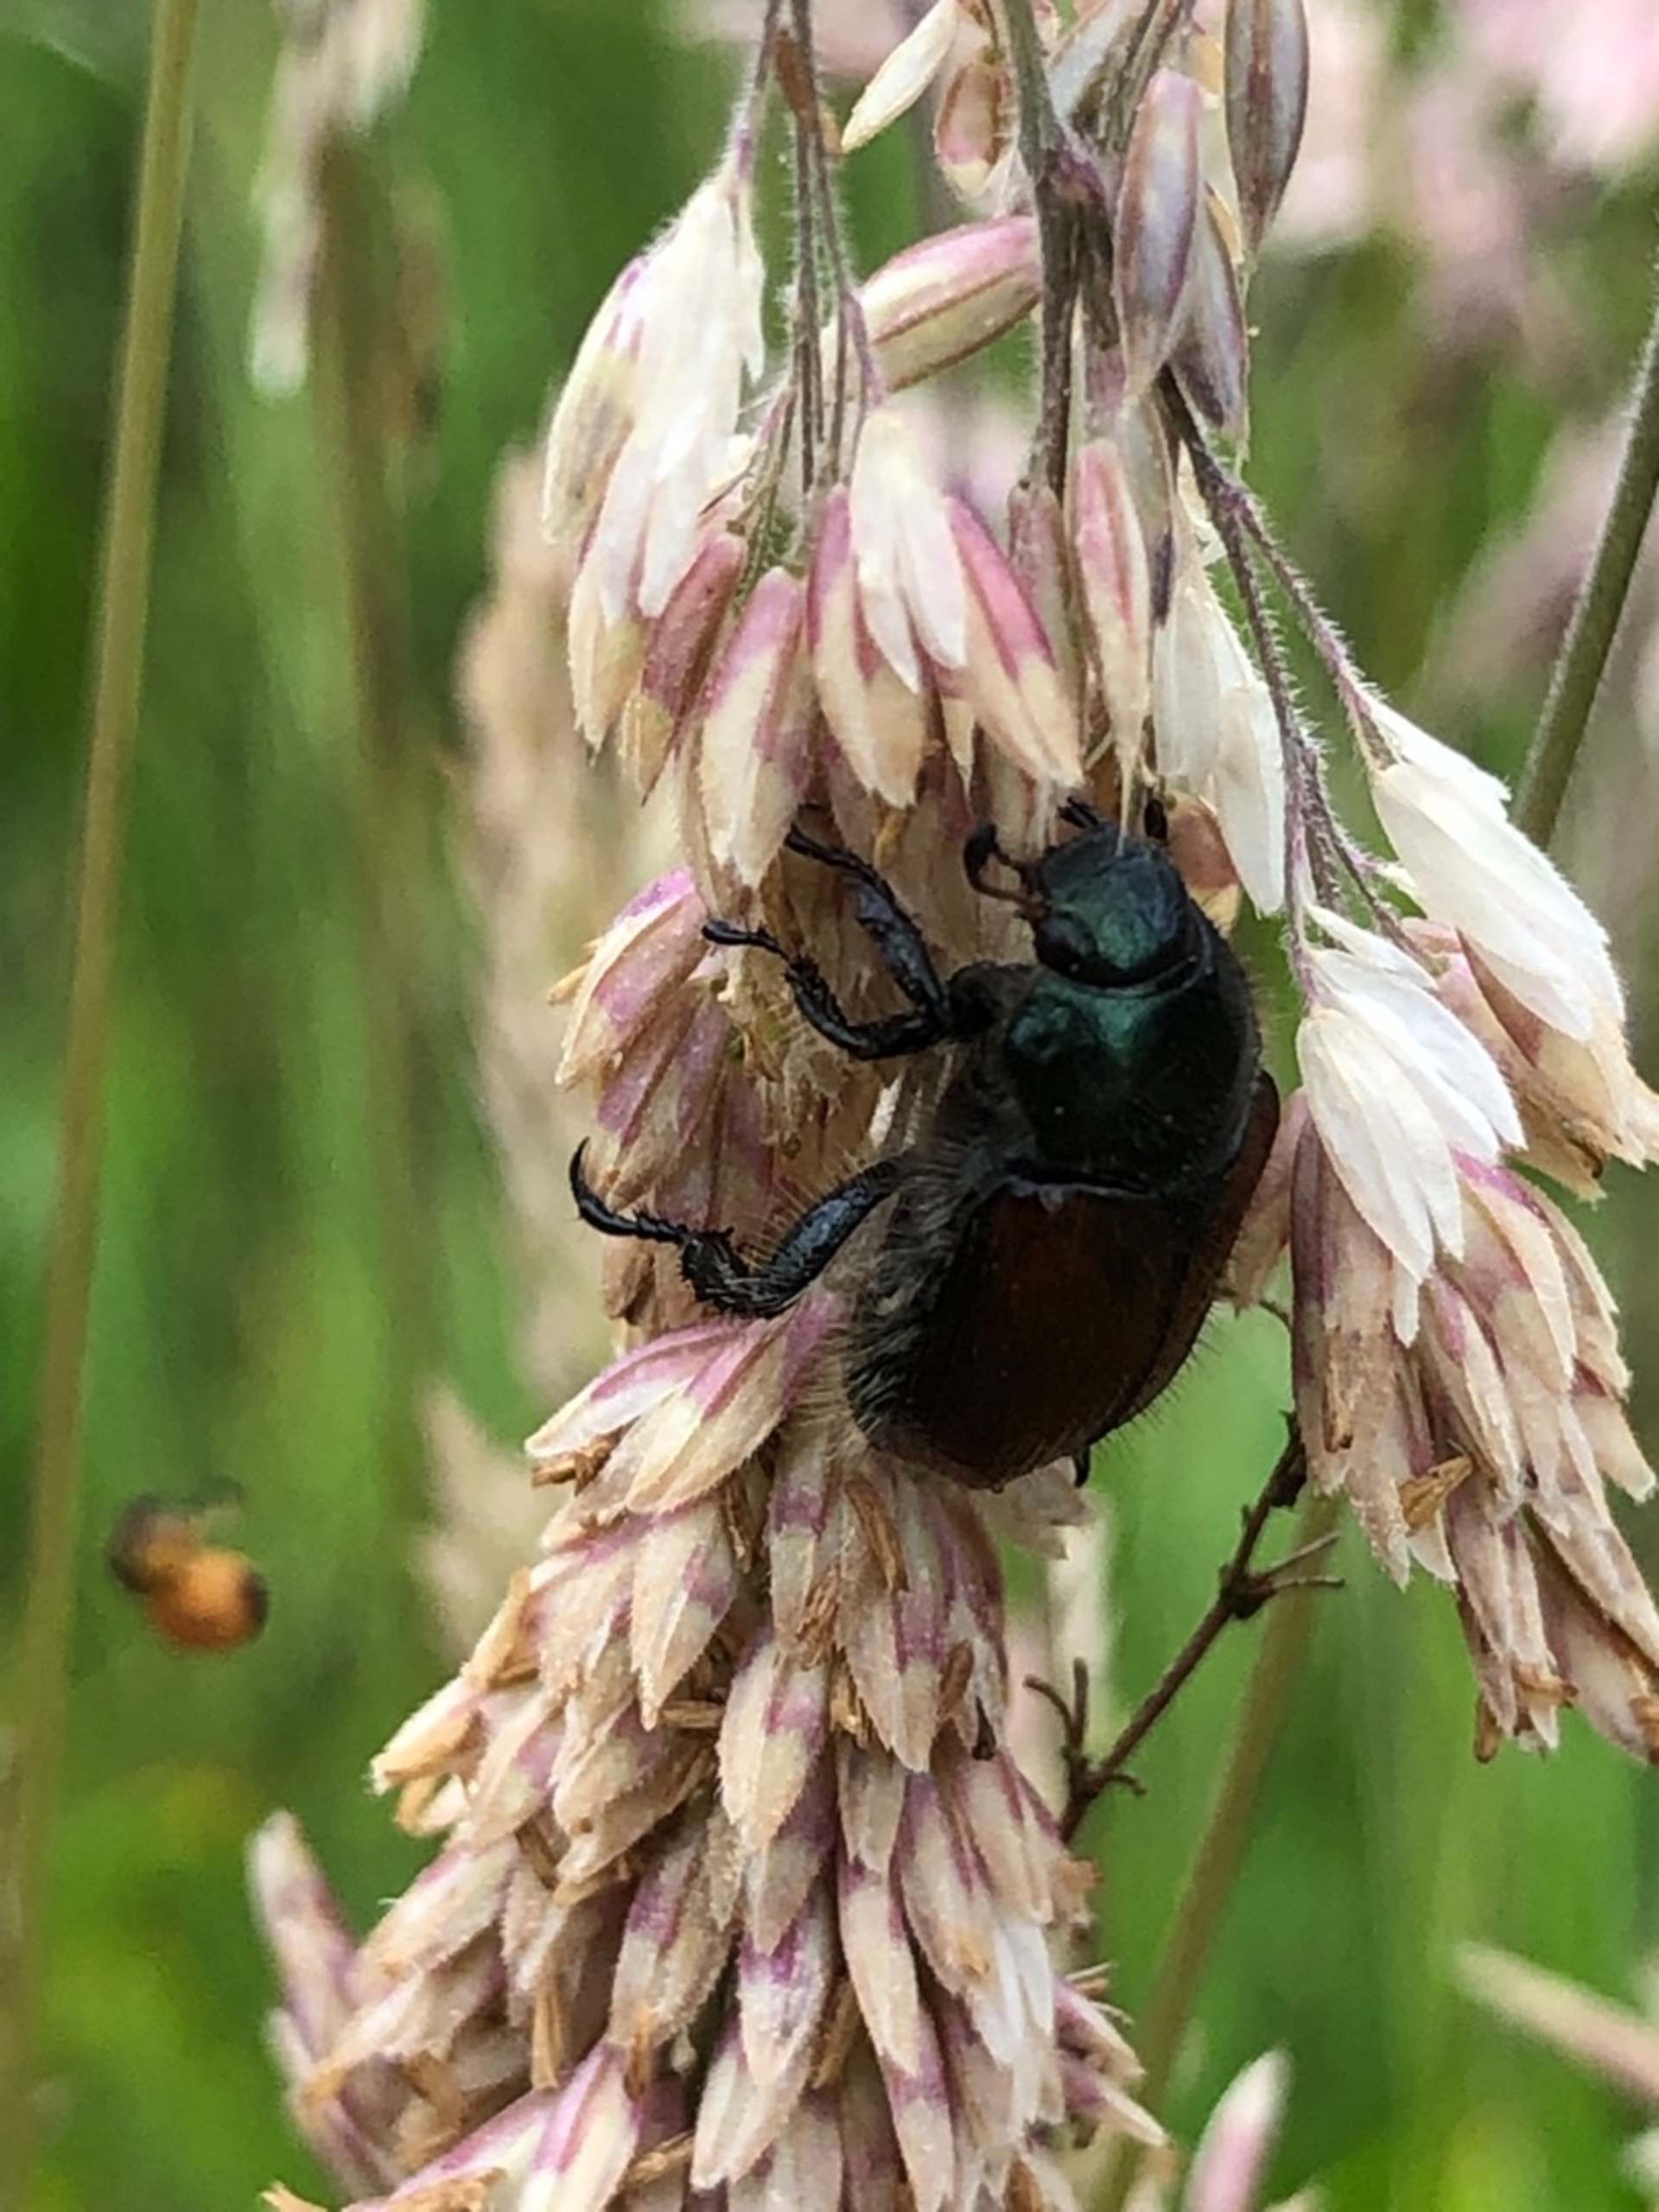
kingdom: Animalia
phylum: Arthropoda
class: Insecta
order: Coleoptera
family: Scarabaeidae
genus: Phyllopertha
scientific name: Phyllopertha horticola
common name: Gåsebille
